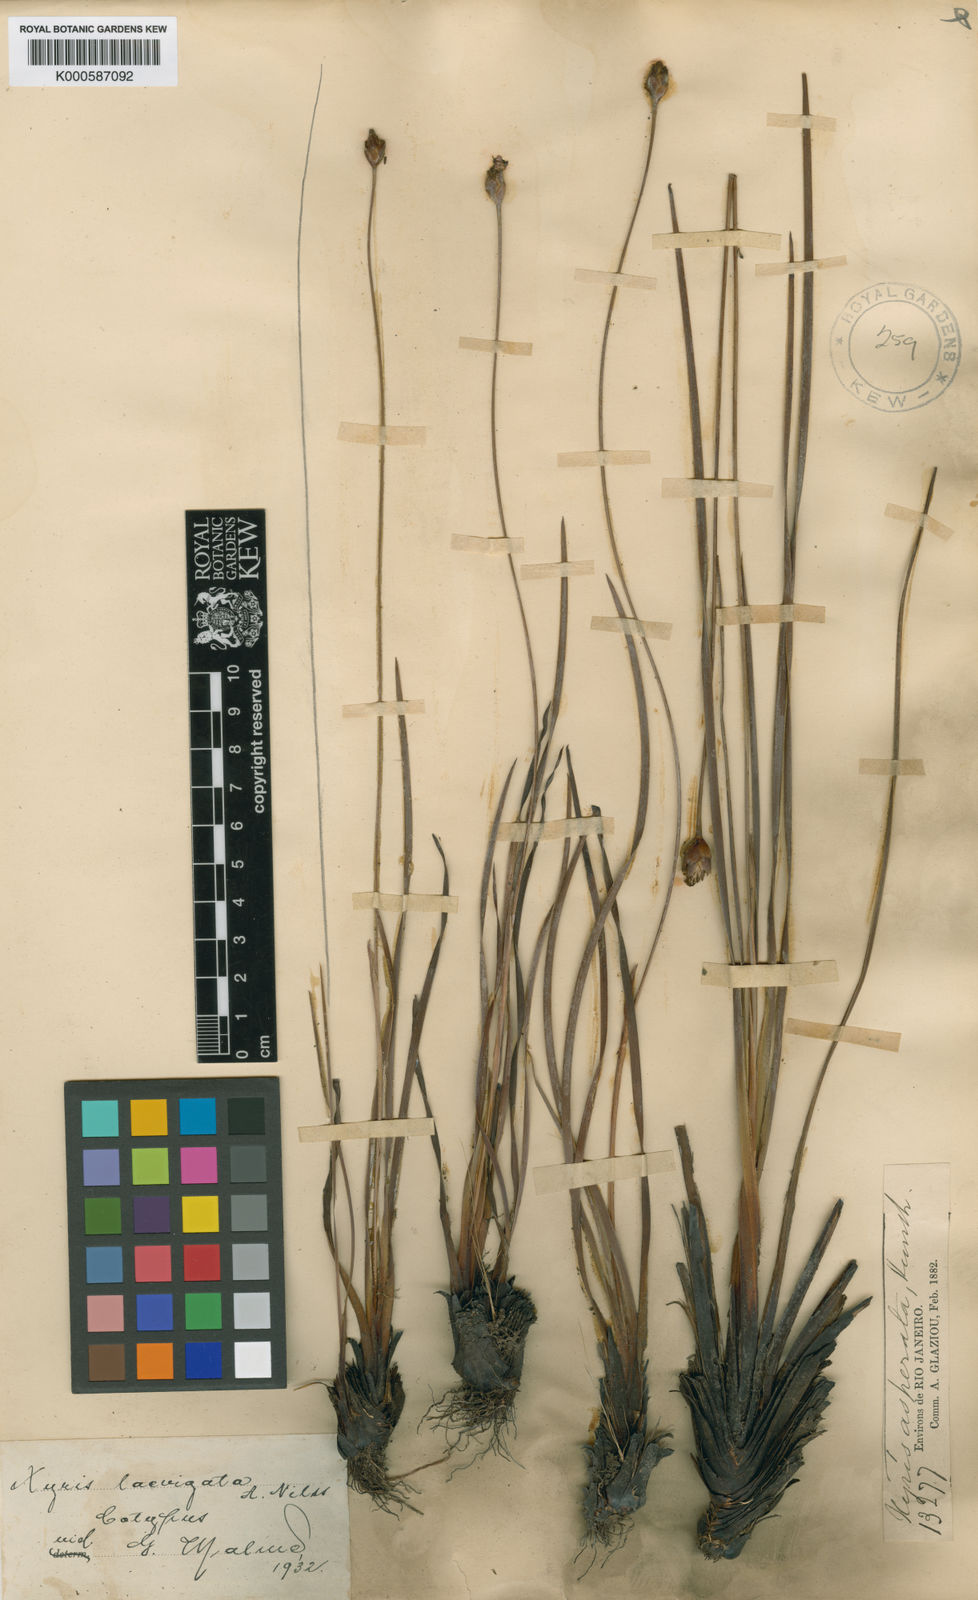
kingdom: Plantae
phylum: Tracheophyta
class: Liliopsida
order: Poales
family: Xyridaceae
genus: Xyris
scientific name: Xyris laevigata
